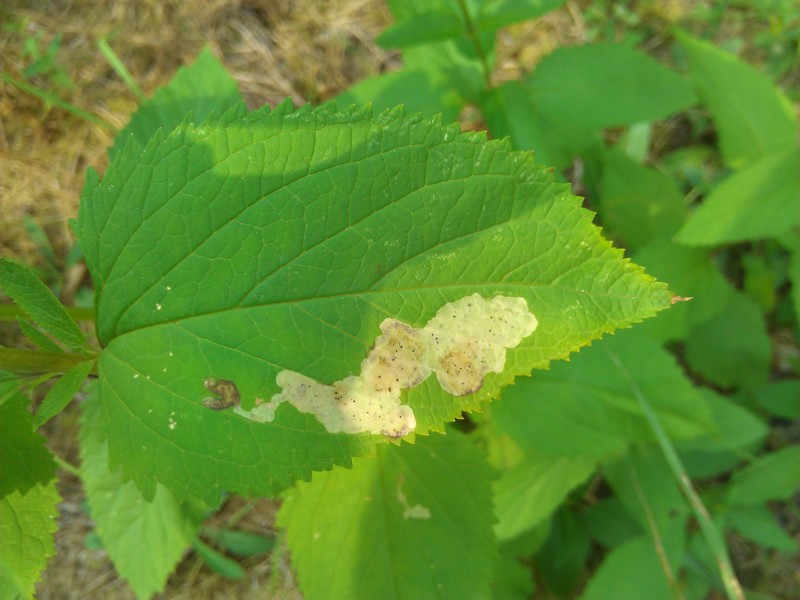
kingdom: Animalia
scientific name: Animalia
